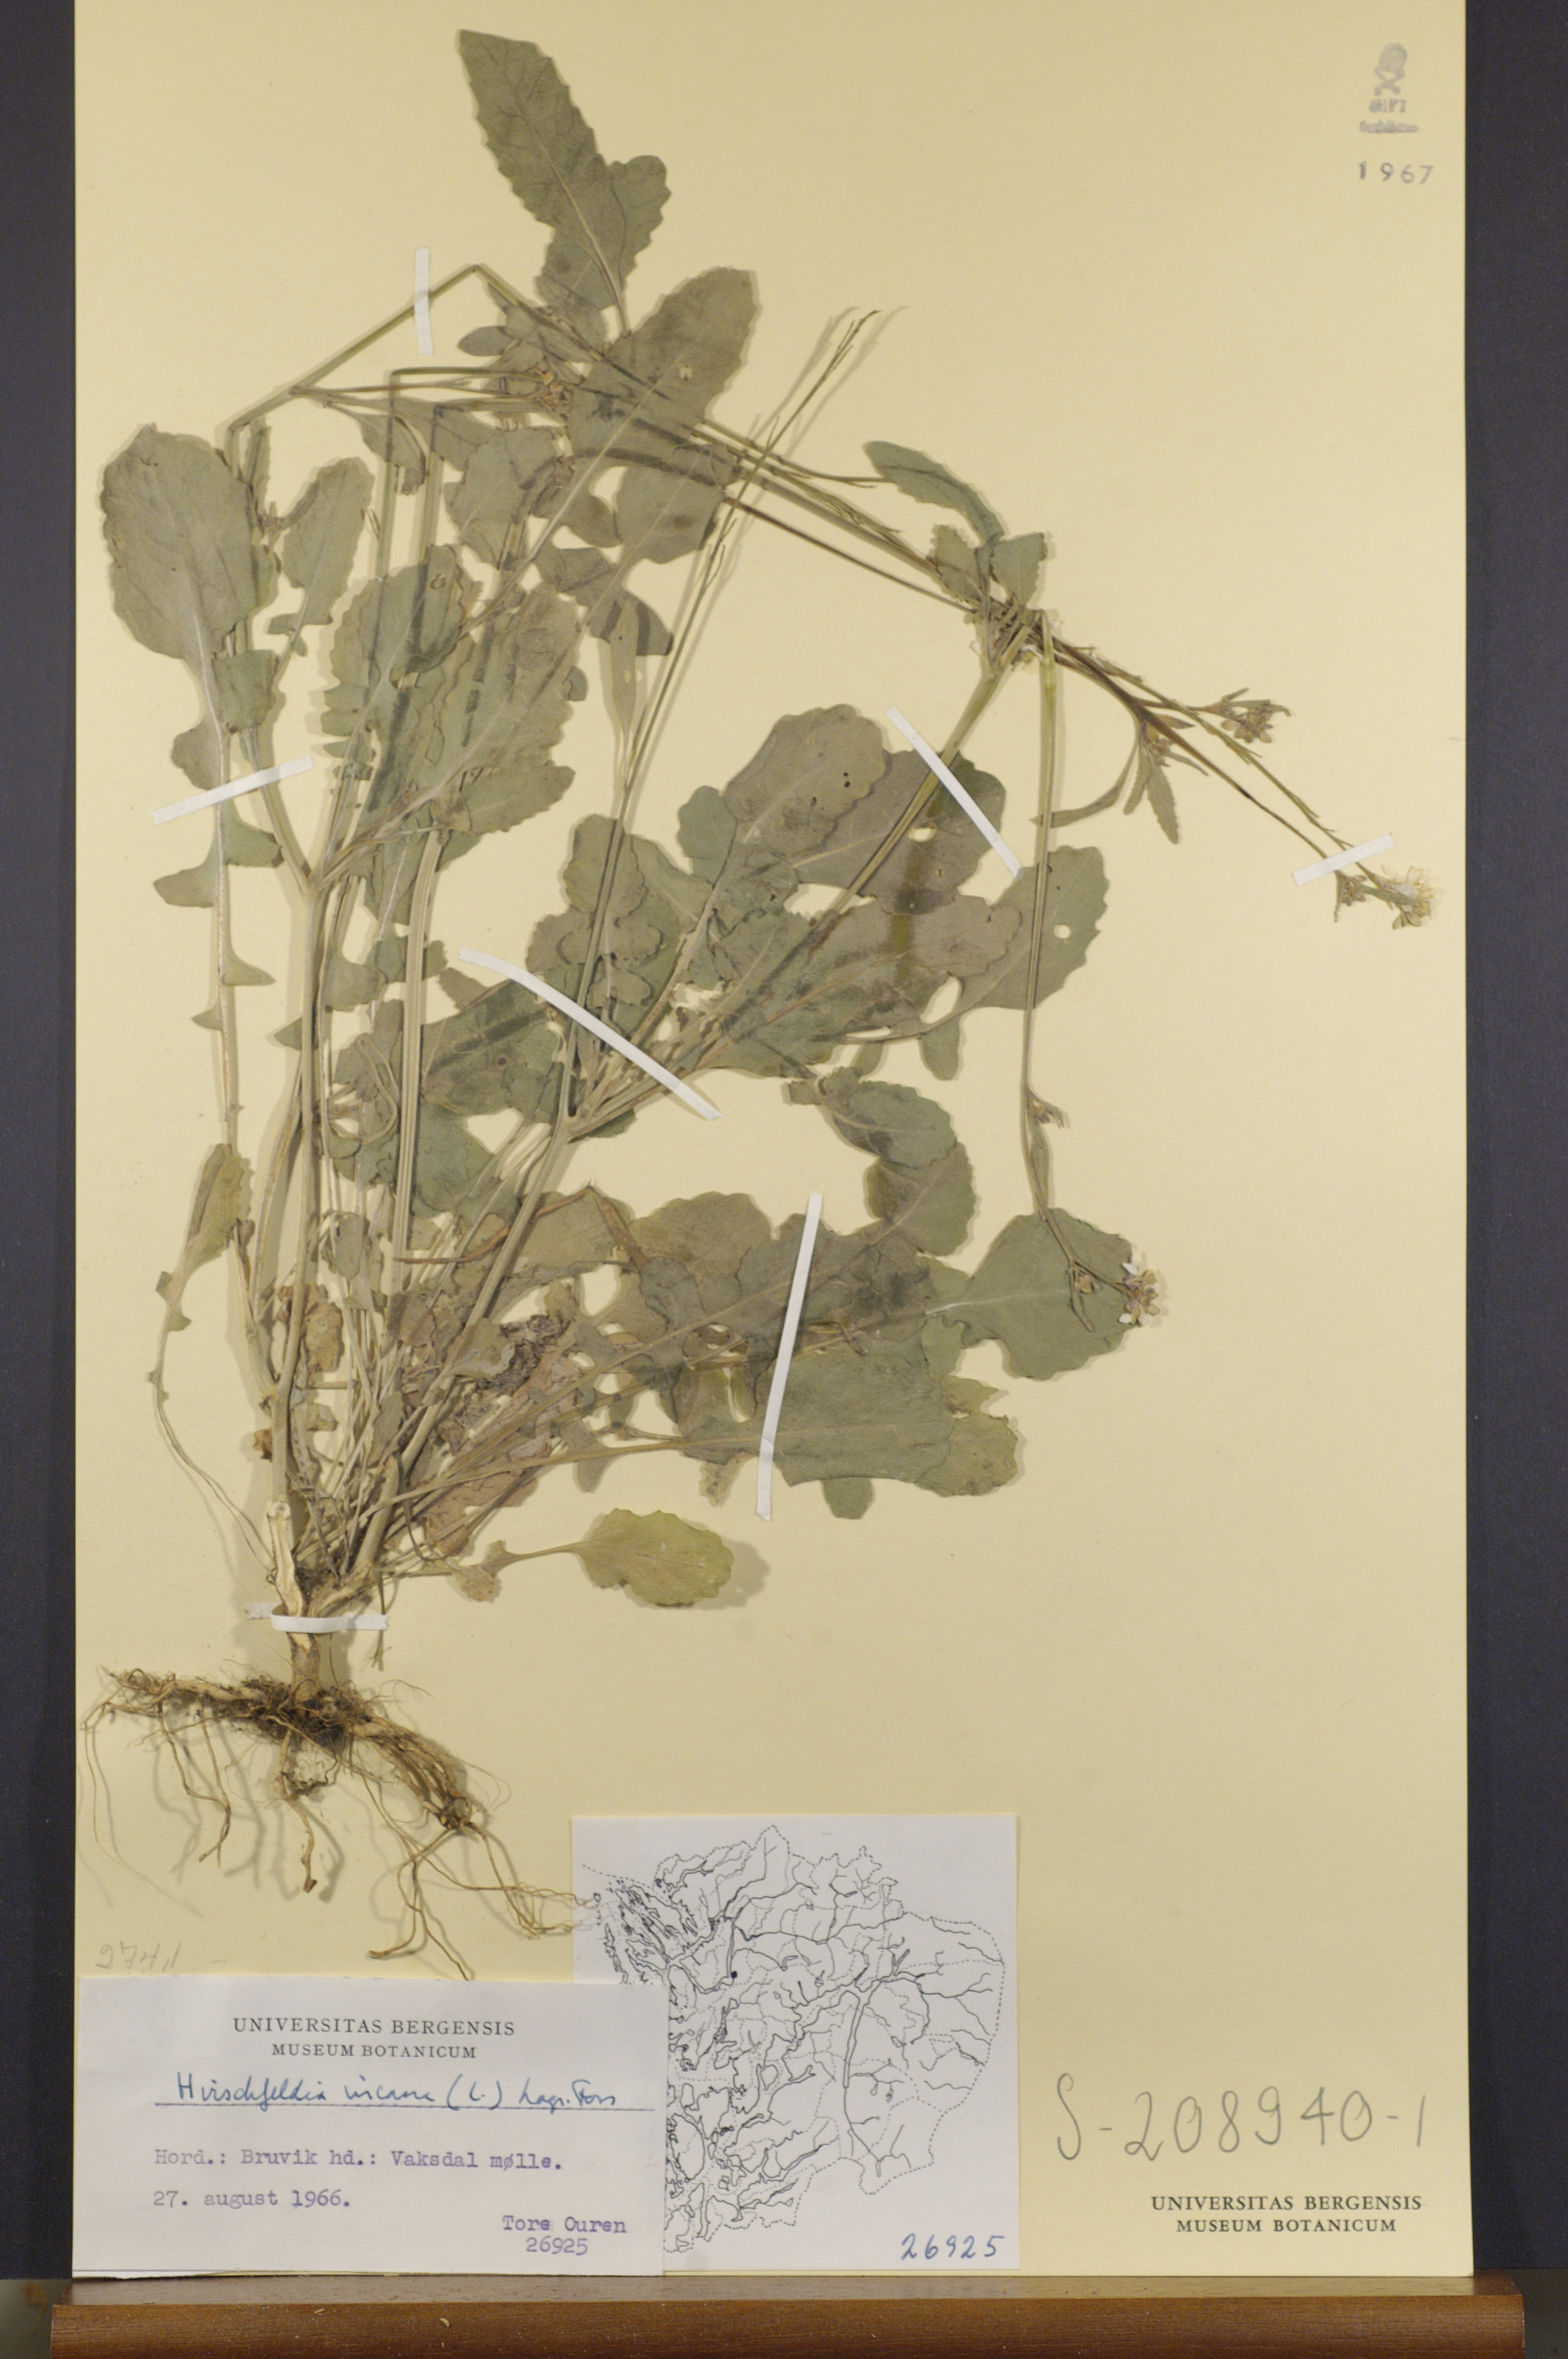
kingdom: Plantae
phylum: Tracheophyta
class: Magnoliopsida
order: Brassicales
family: Brassicaceae
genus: Hirschfeldia
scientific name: Hirschfeldia incana
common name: Hoary mustard
